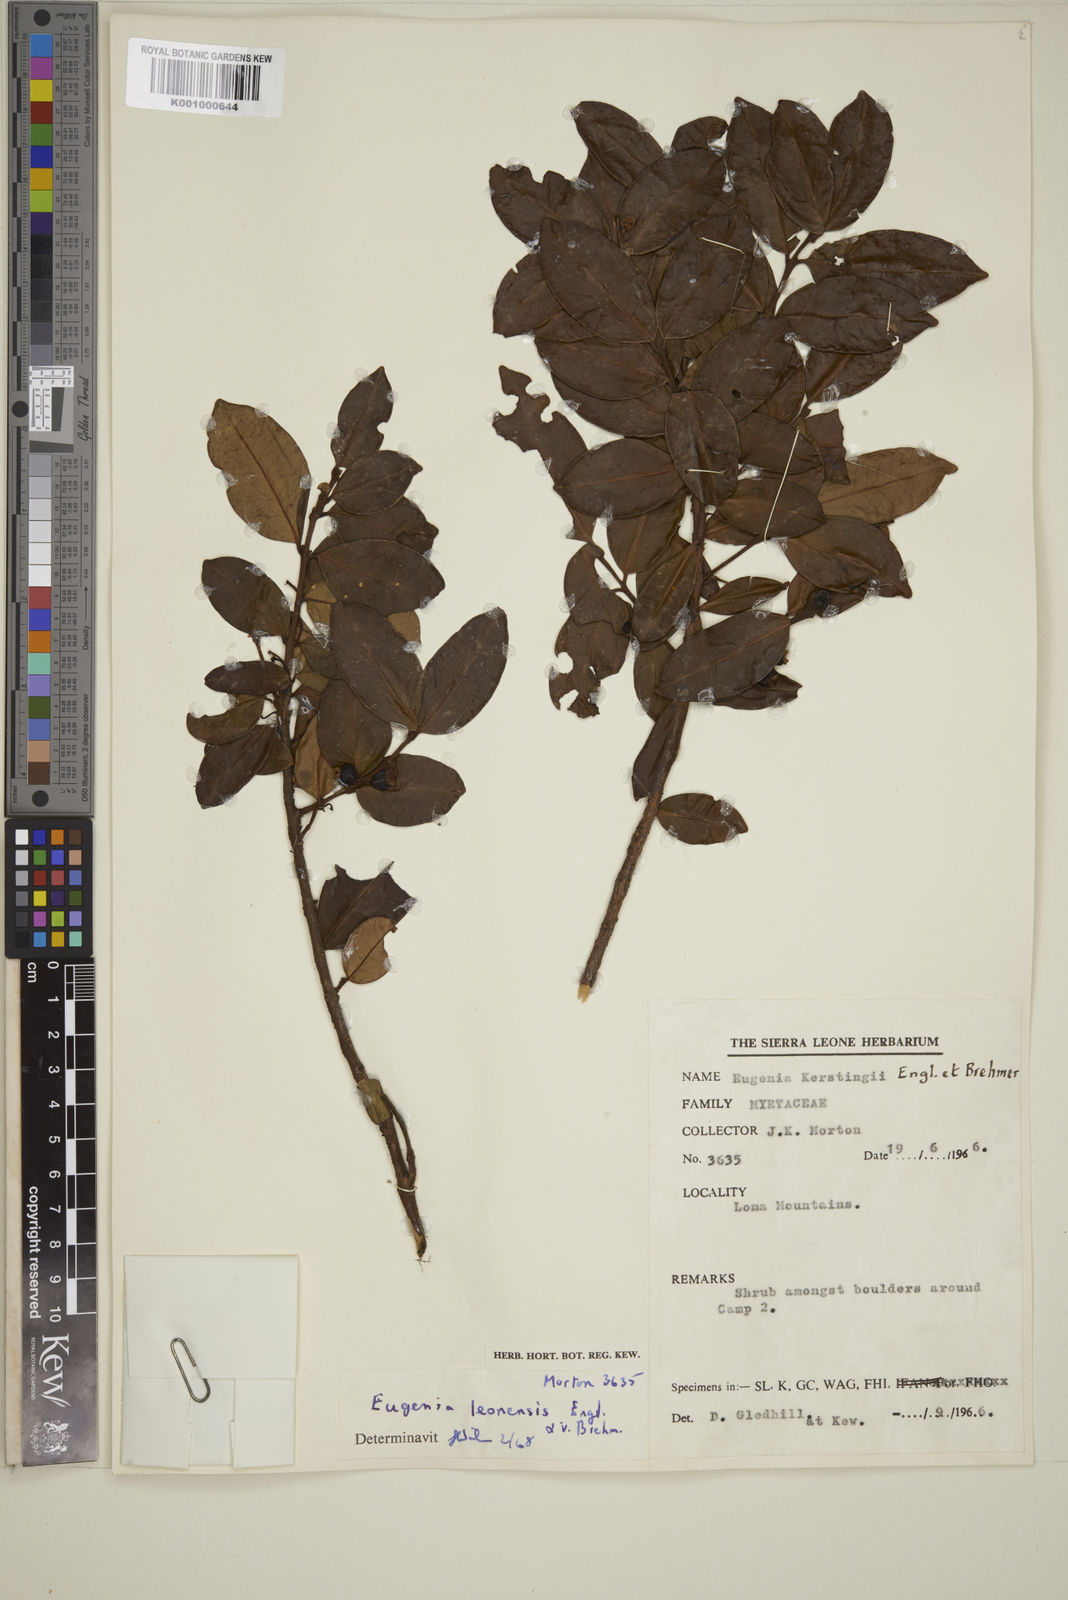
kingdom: Plantae
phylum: Tracheophyta
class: Magnoliopsida
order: Myrtales
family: Myrtaceae
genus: Eugenia
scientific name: Eugenia leonensis
